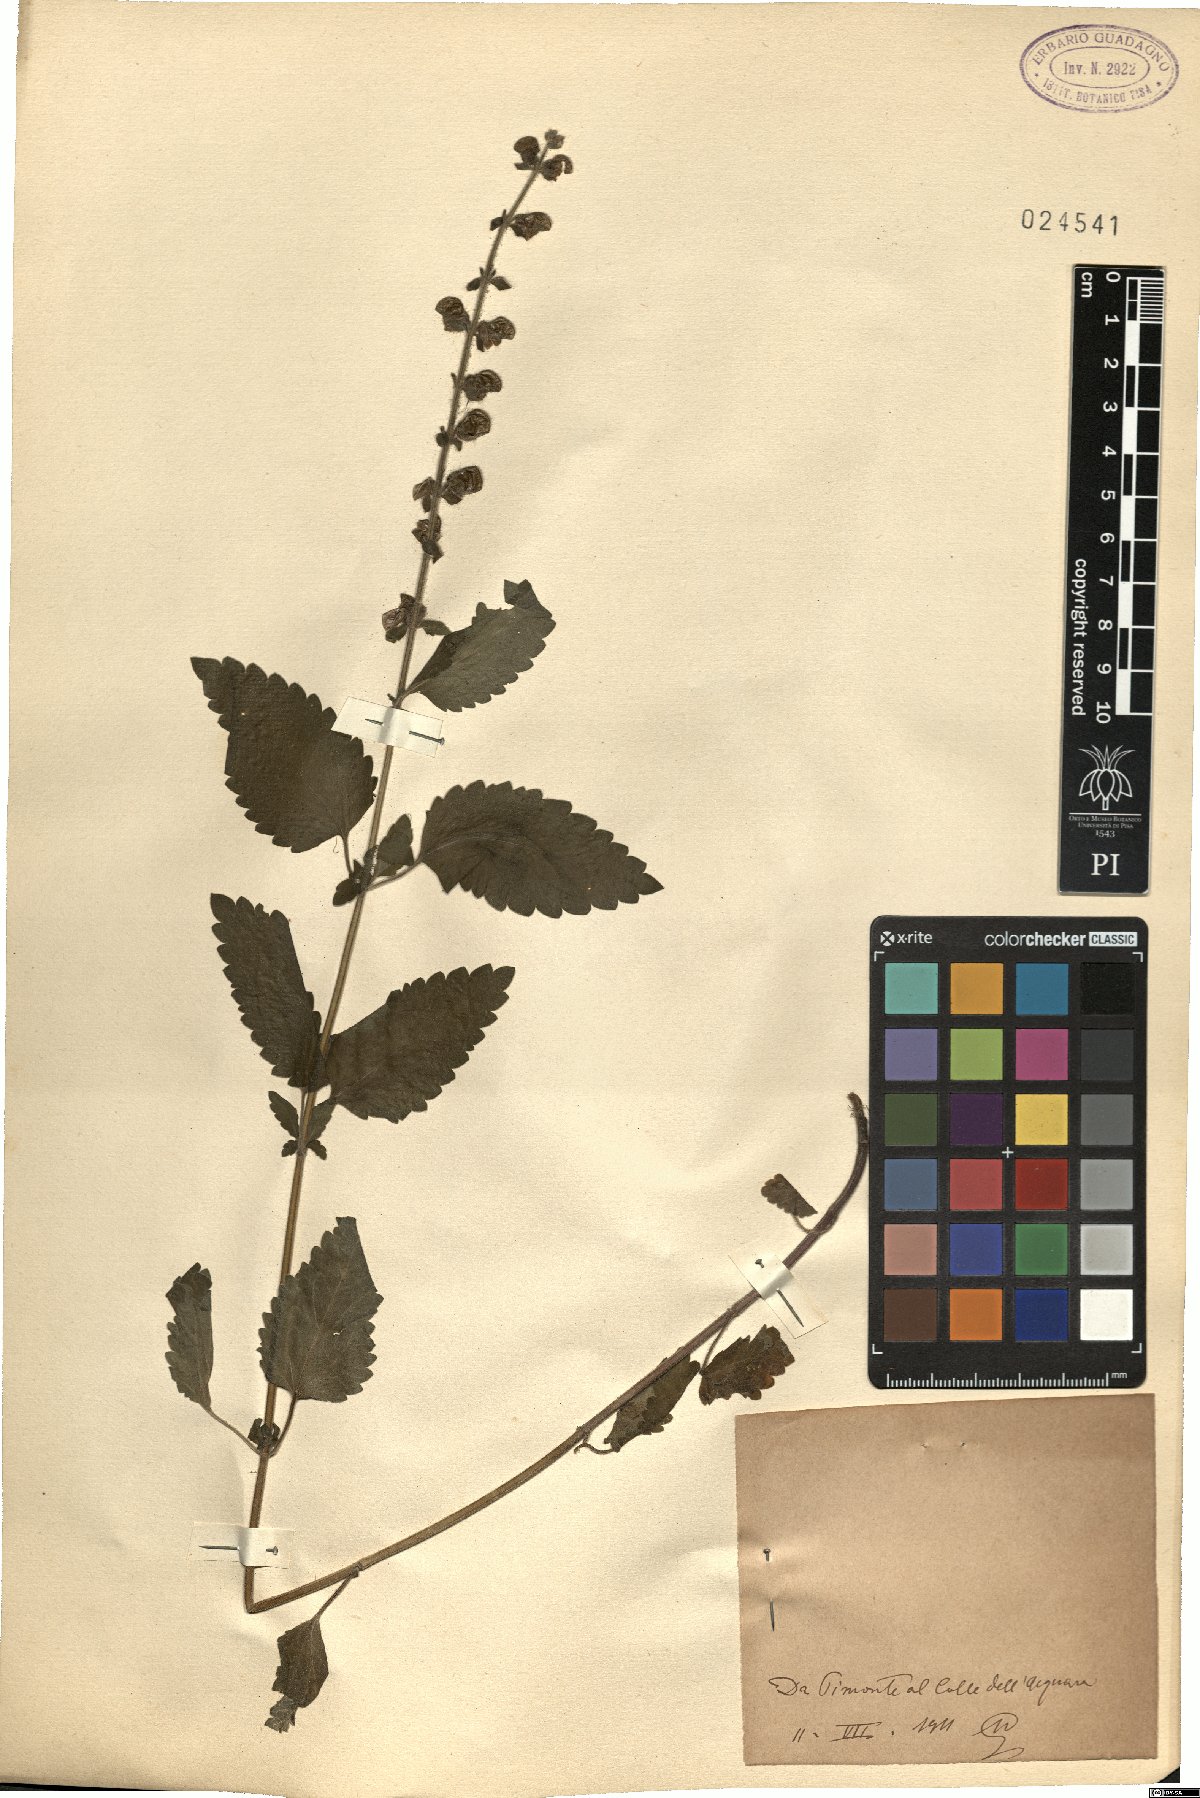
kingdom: Plantae
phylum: Tracheophyta
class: Magnoliopsida
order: Lamiales
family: Lamiaceae
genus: Scutellaria
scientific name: Scutellaria
